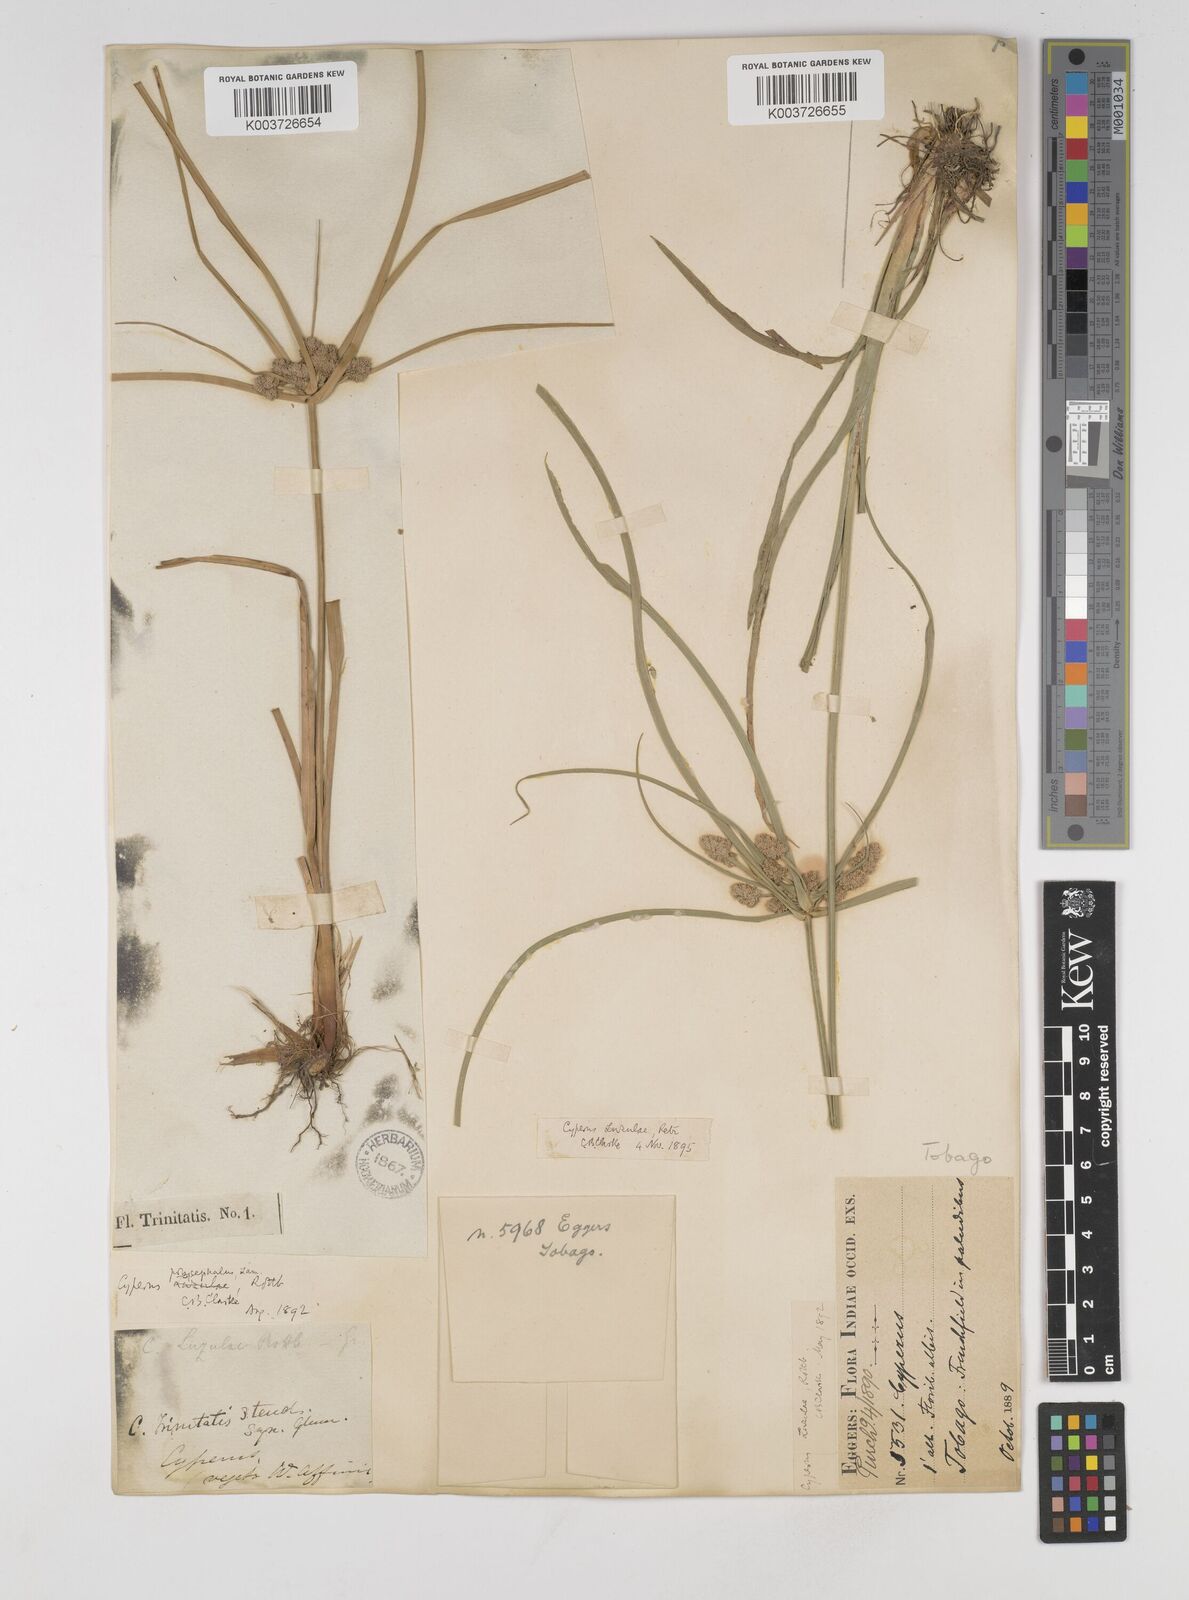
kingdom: Plantae
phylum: Tracheophyta
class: Liliopsida
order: Poales
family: Cyperaceae
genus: Cyperus
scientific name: Cyperus luzulae
